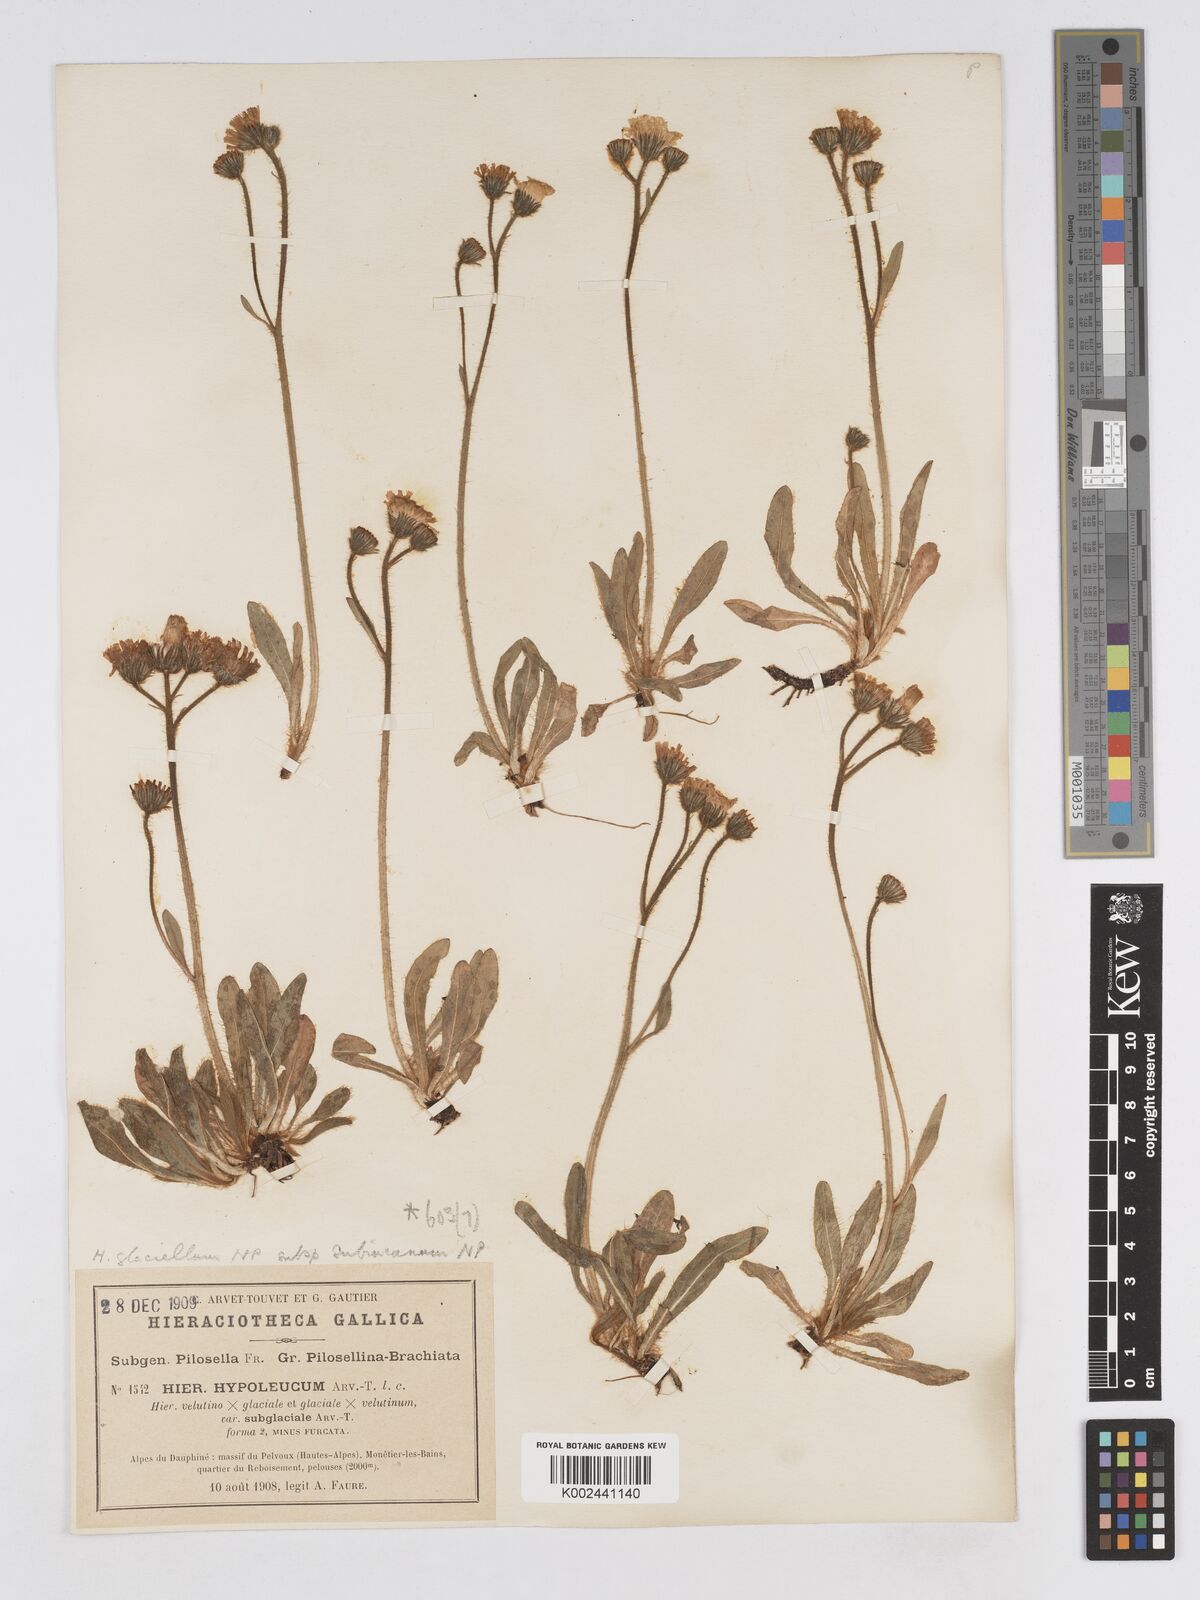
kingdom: Plantae
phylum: Tracheophyta
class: Magnoliopsida
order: Asterales
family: Asteraceae
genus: Pilosella
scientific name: Pilosella hypoleuca
